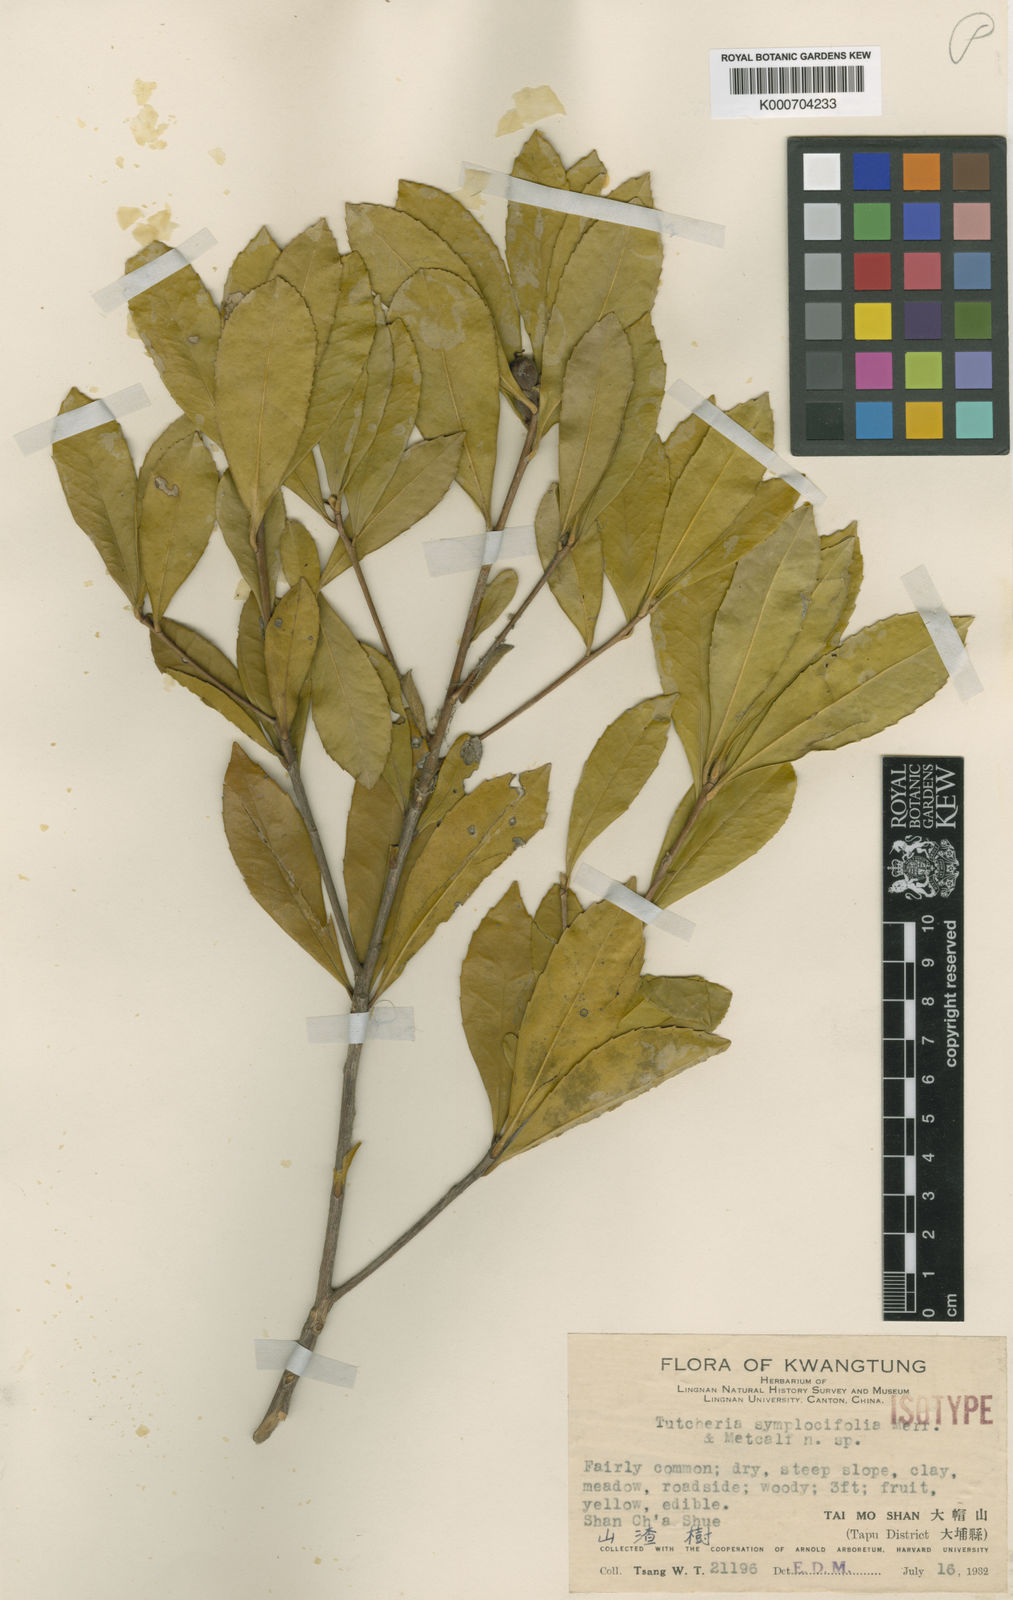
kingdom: Plantae
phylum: Tracheophyta
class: Magnoliopsida
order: Ericales
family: Theaceae
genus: Pyrenaria
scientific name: Pyrenaria microcarpa
